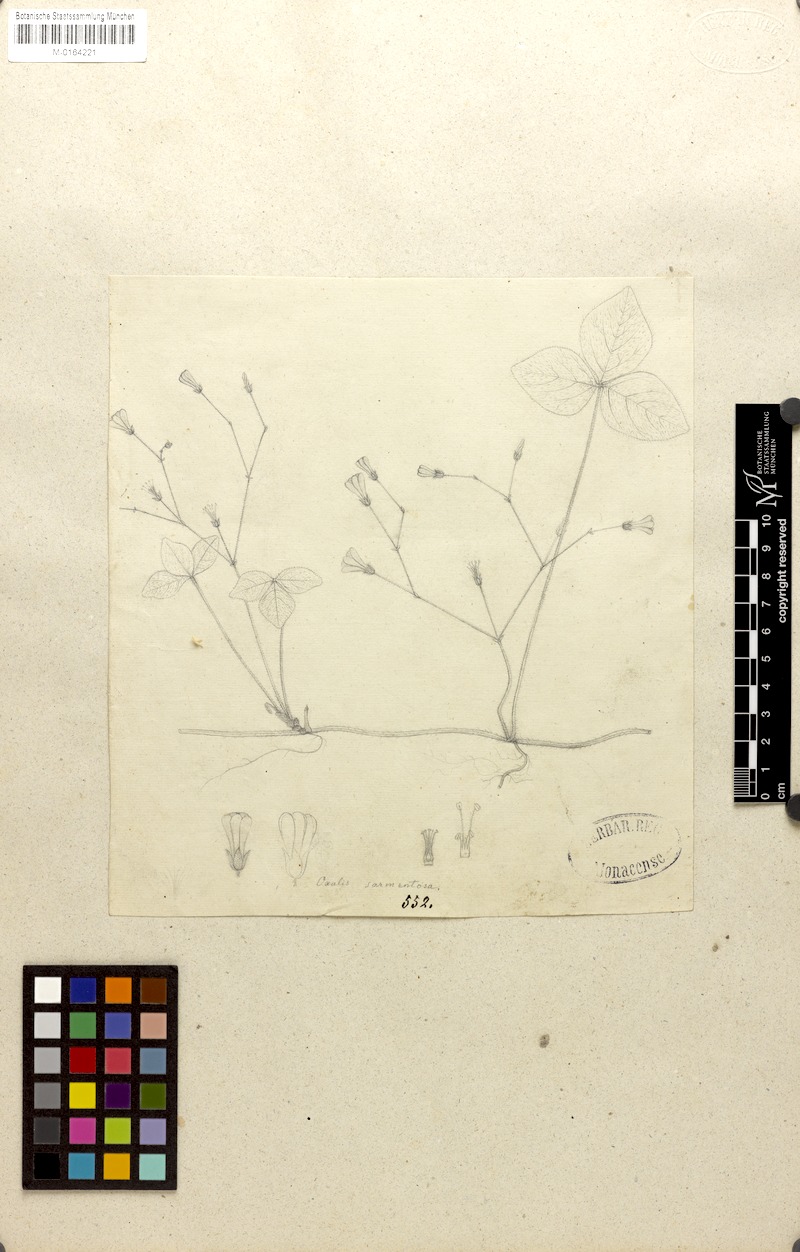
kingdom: Plantae
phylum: Tracheophyta
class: Magnoliopsida
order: Oxalidales
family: Oxalidaceae
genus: Oxalis
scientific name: Oxalis sarmentosa
